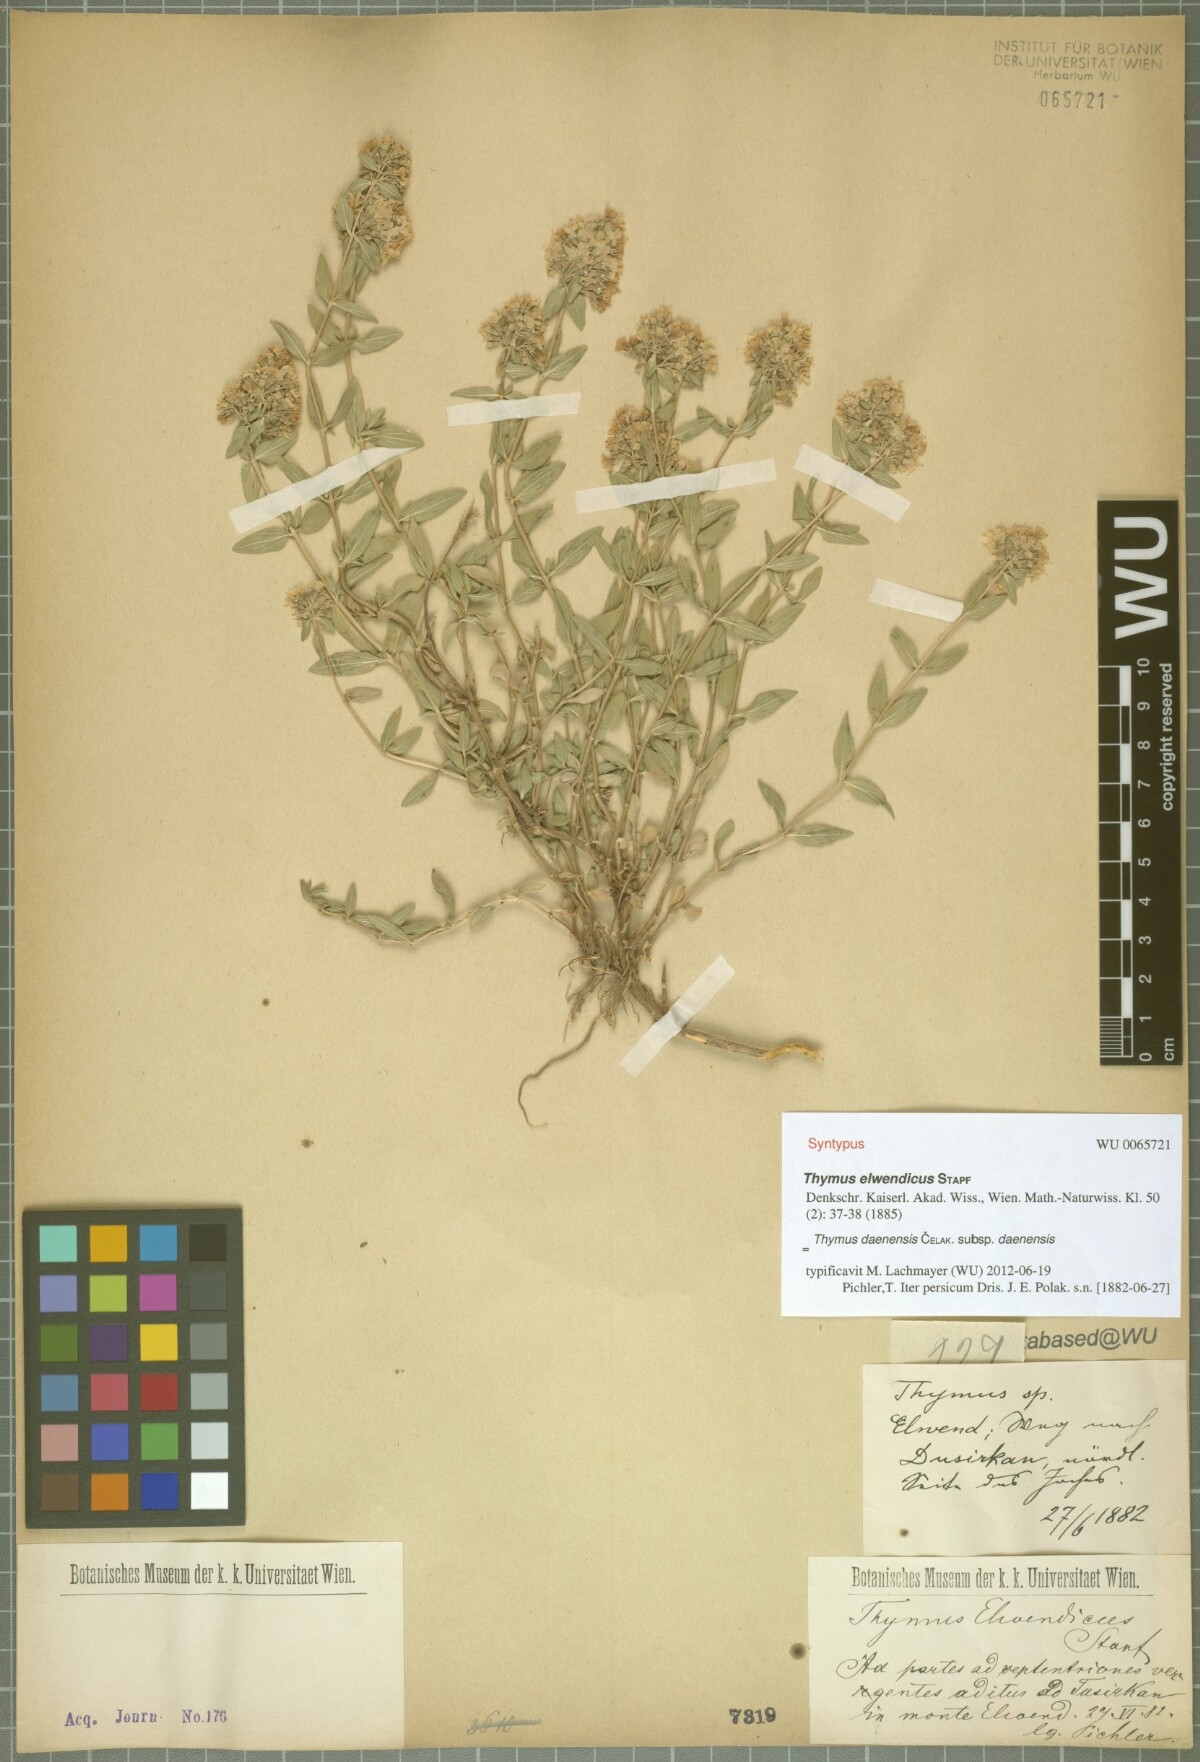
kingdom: Plantae
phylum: Tracheophyta
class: Magnoliopsida
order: Lamiales
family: Lamiaceae
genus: Thymus
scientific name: Thymus daenensis
